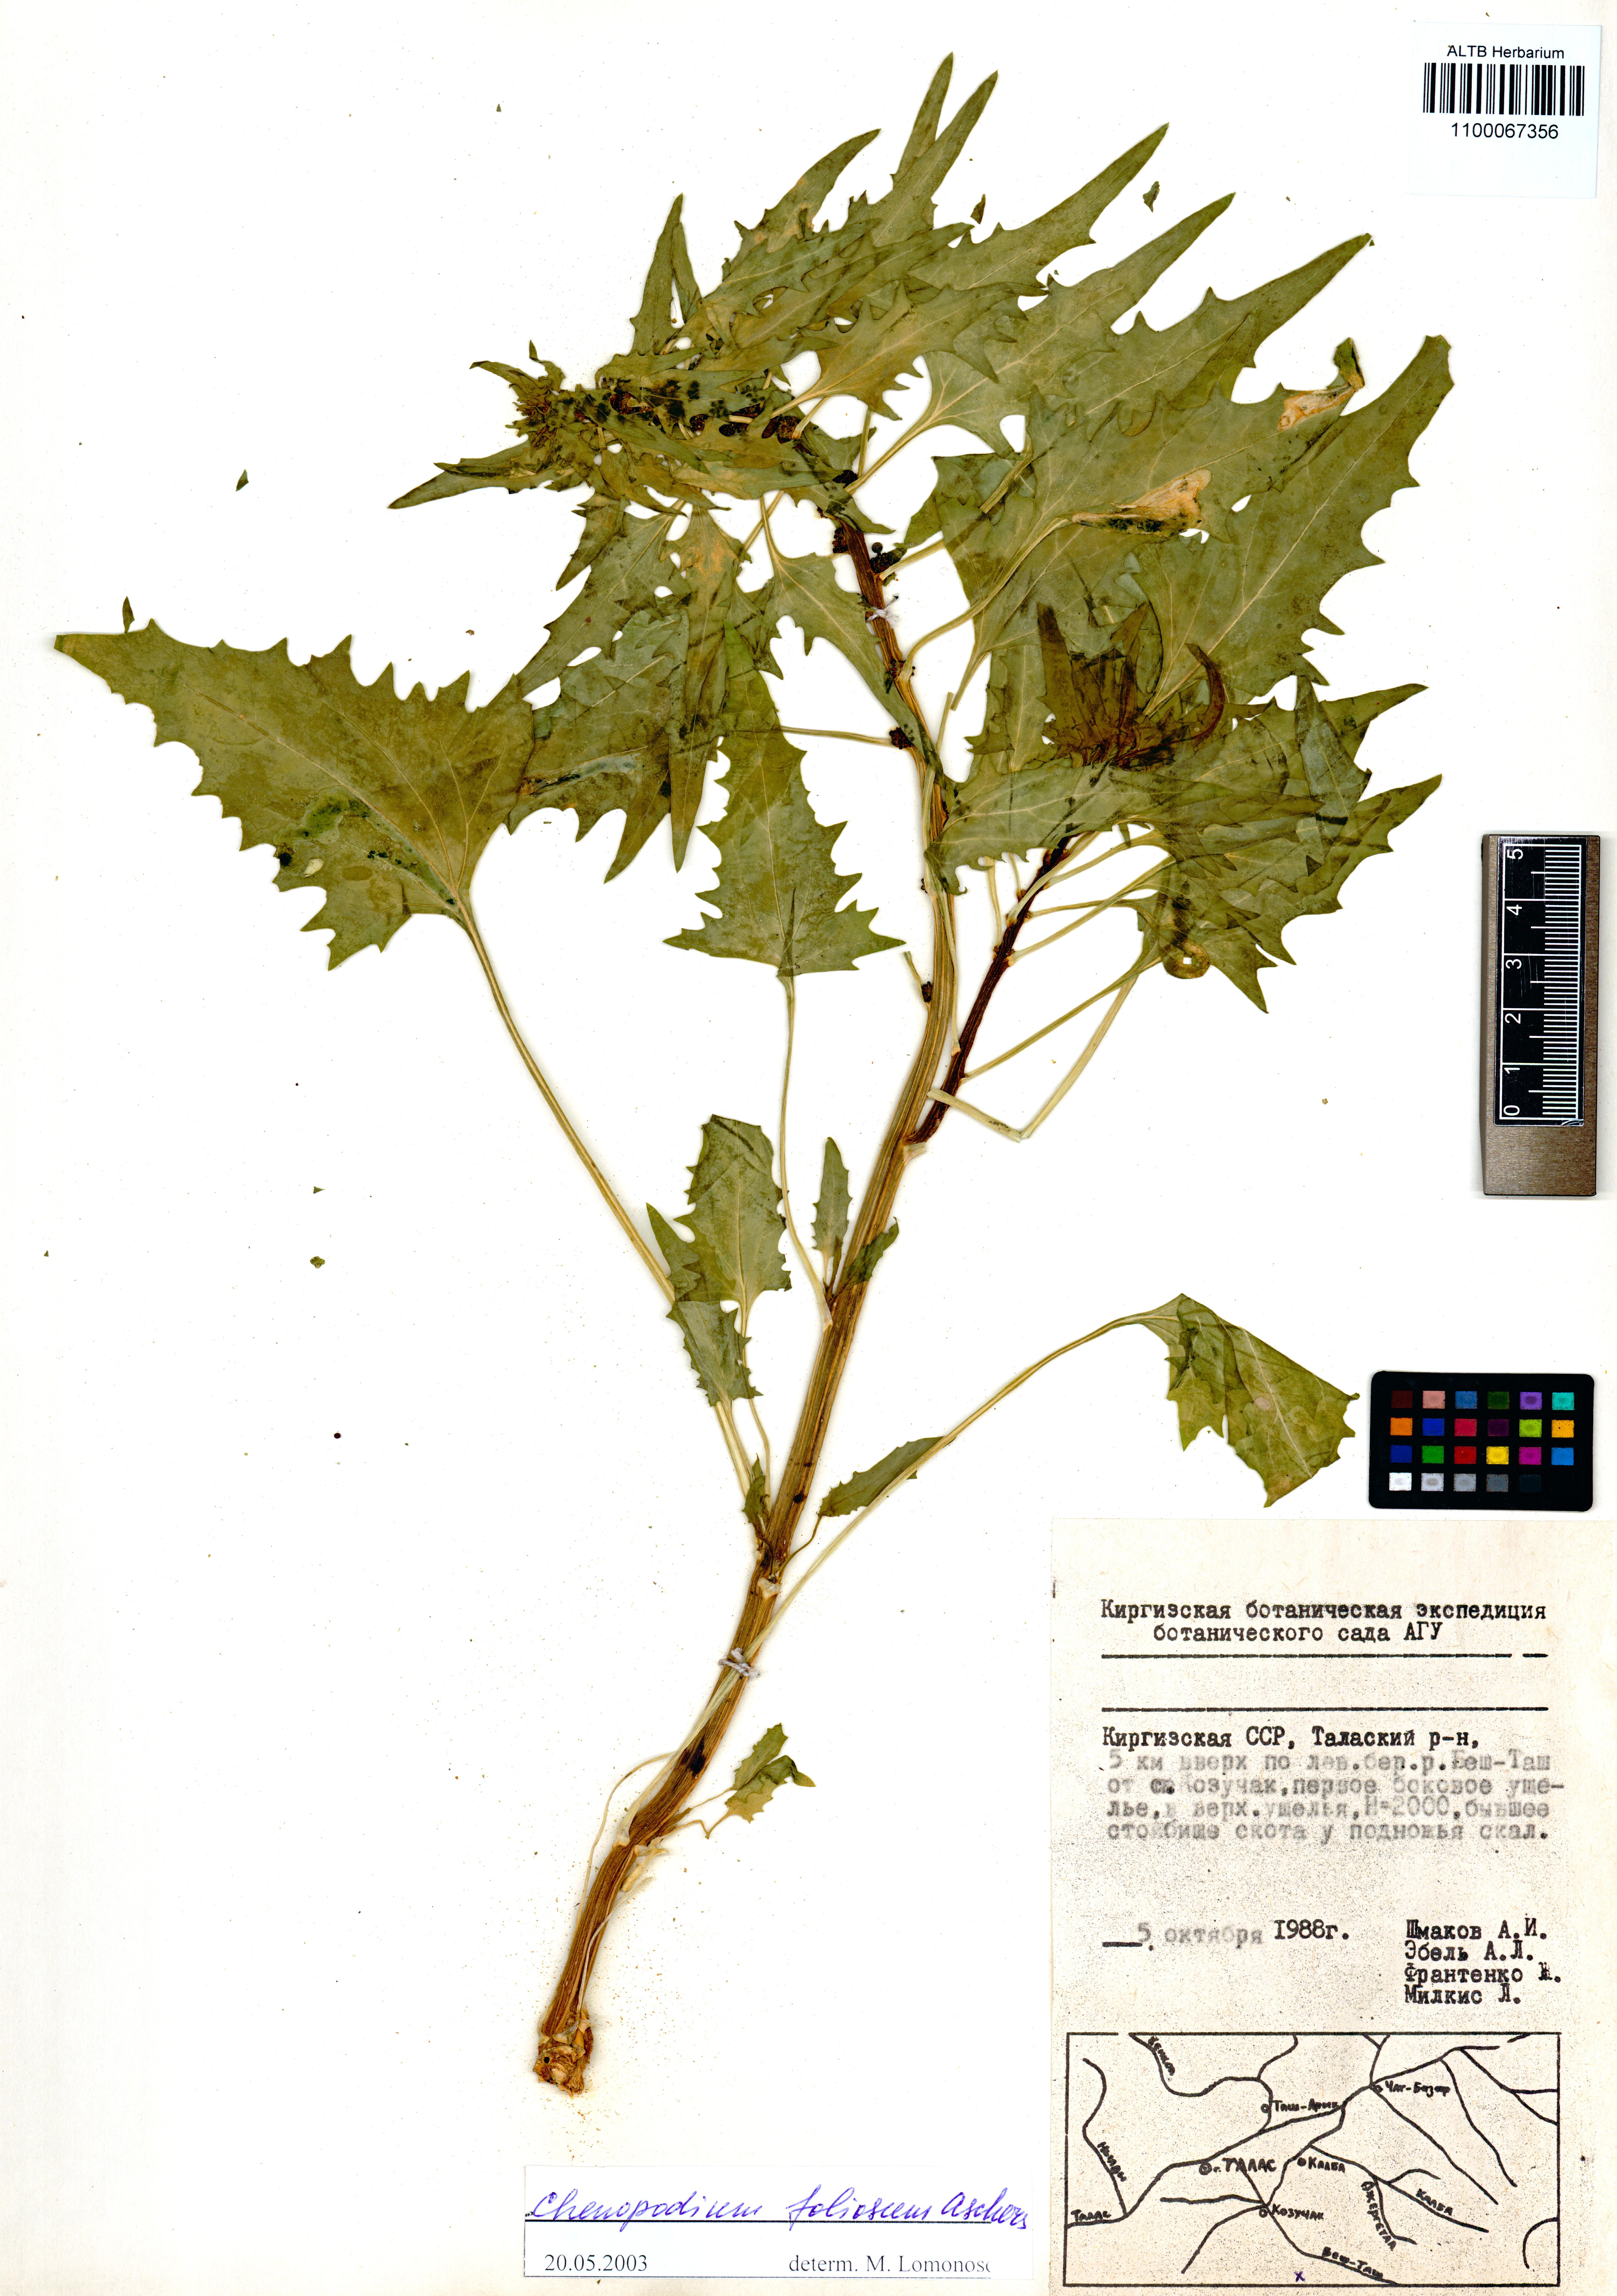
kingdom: Plantae
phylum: Tracheophyta
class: Magnoliopsida
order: Caryophyllales
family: Amaranthaceae
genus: Blitum
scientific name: Blitum virgatum
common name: Strawberry goosefoot
